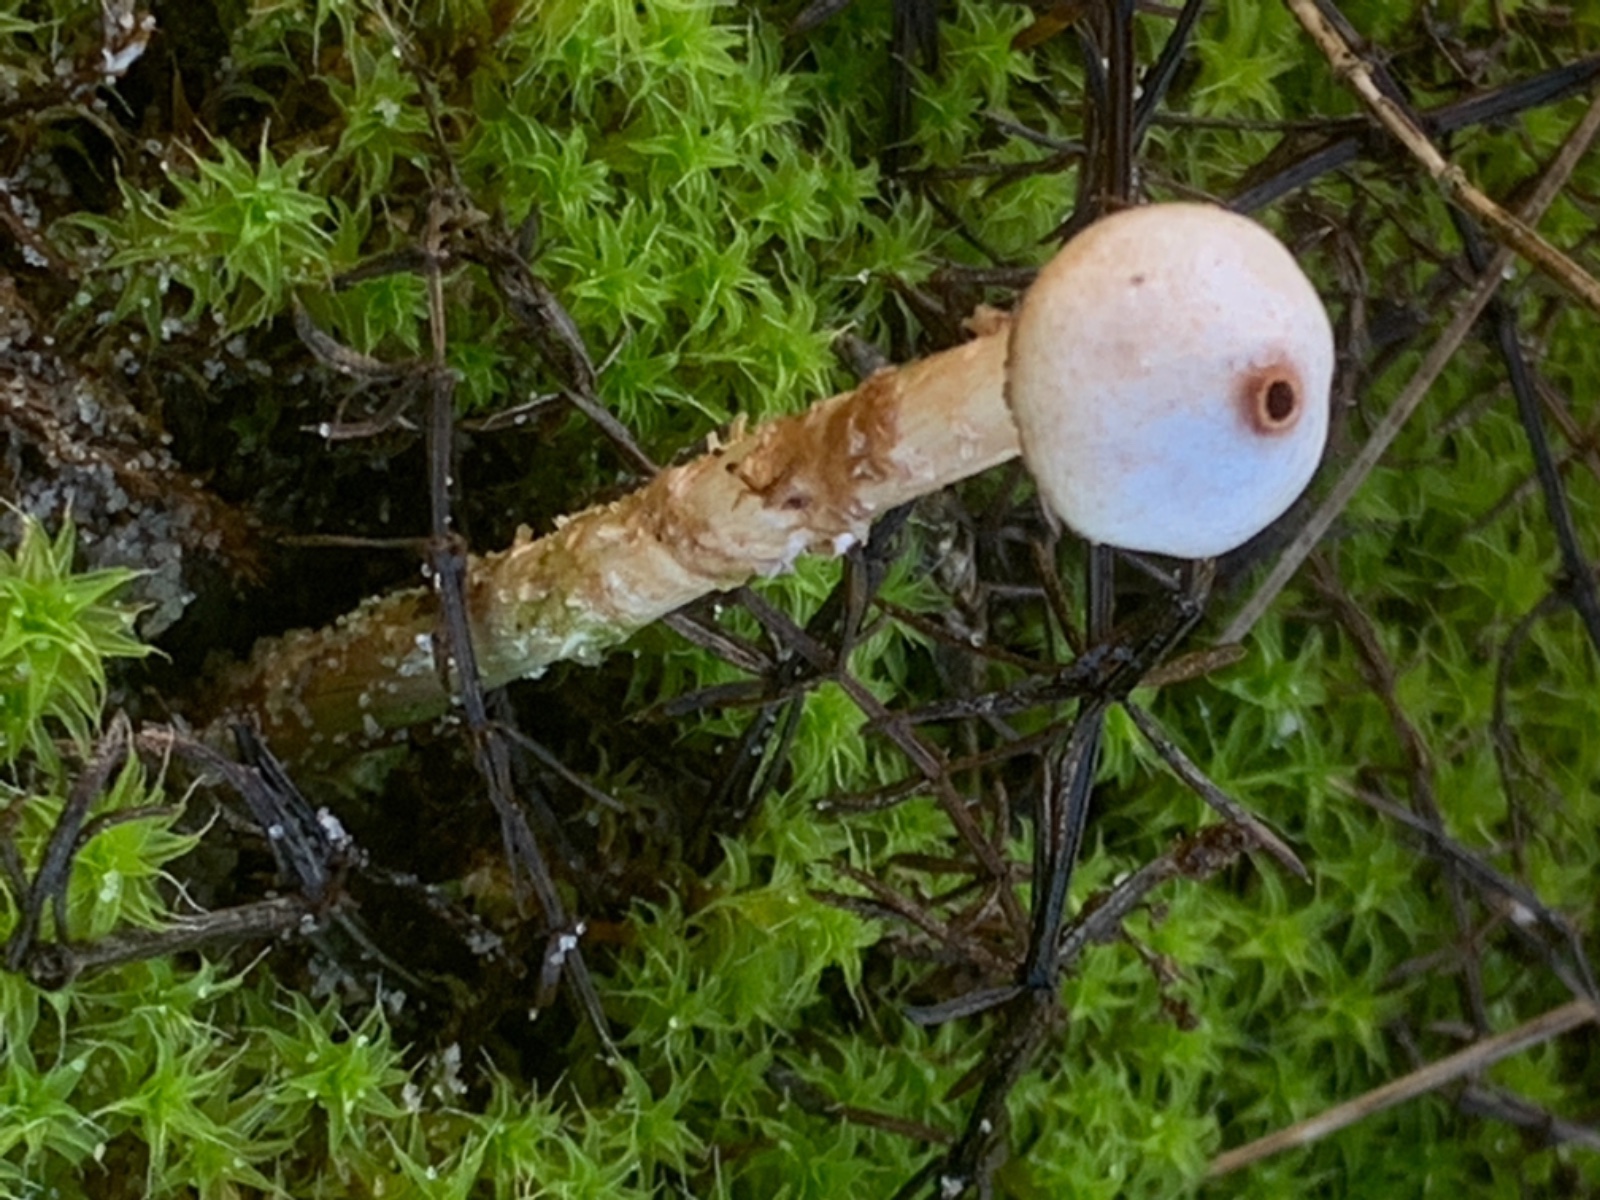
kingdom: Fungi
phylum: Basidiomycota
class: Agaricomycetes
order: Agaricales
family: Agaricaceae
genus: Tulostoma
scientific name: Tulostoma brumale
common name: vinter-stilkbovist
